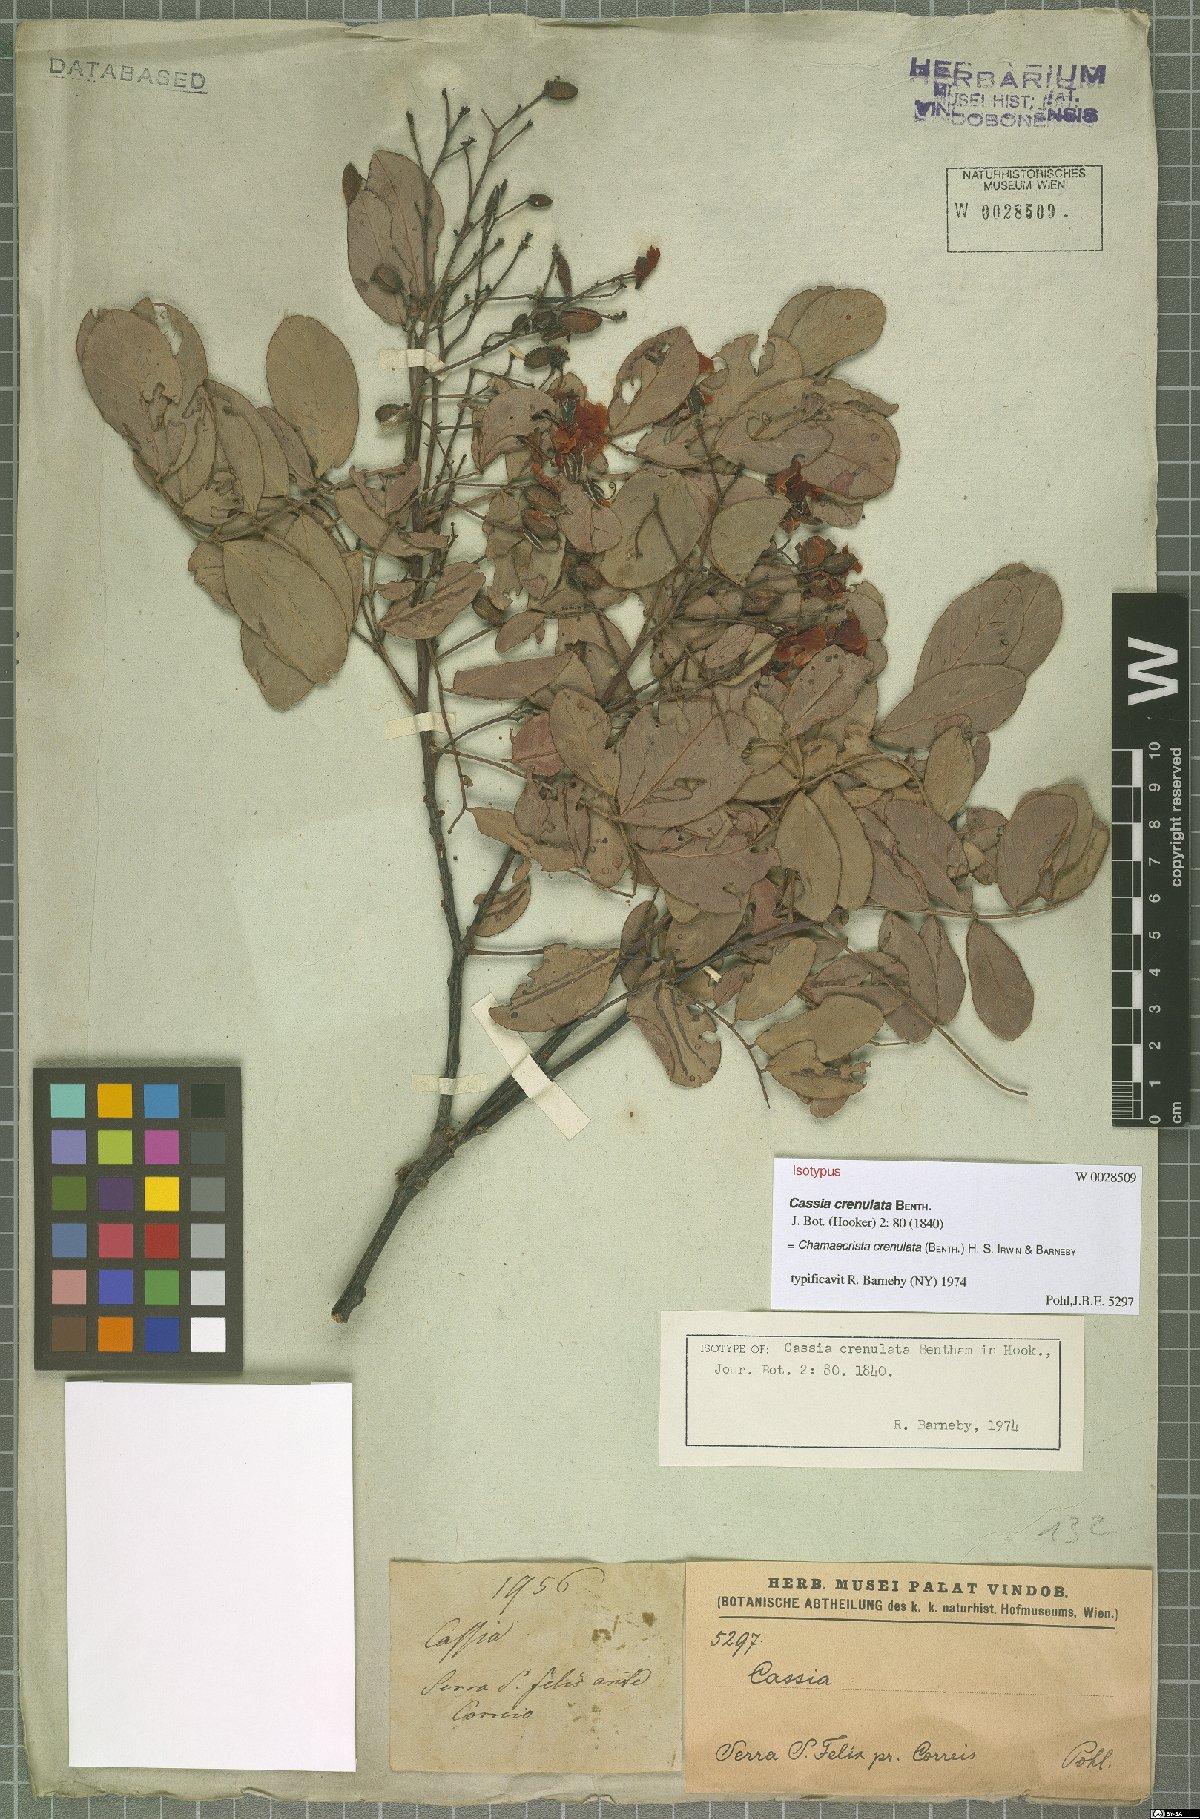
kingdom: Plantae
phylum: Tracheophyta
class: Magnoliopsida
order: Fabales
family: Fabaceae
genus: Chamaecrista
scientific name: Chamaecrista crenulata
